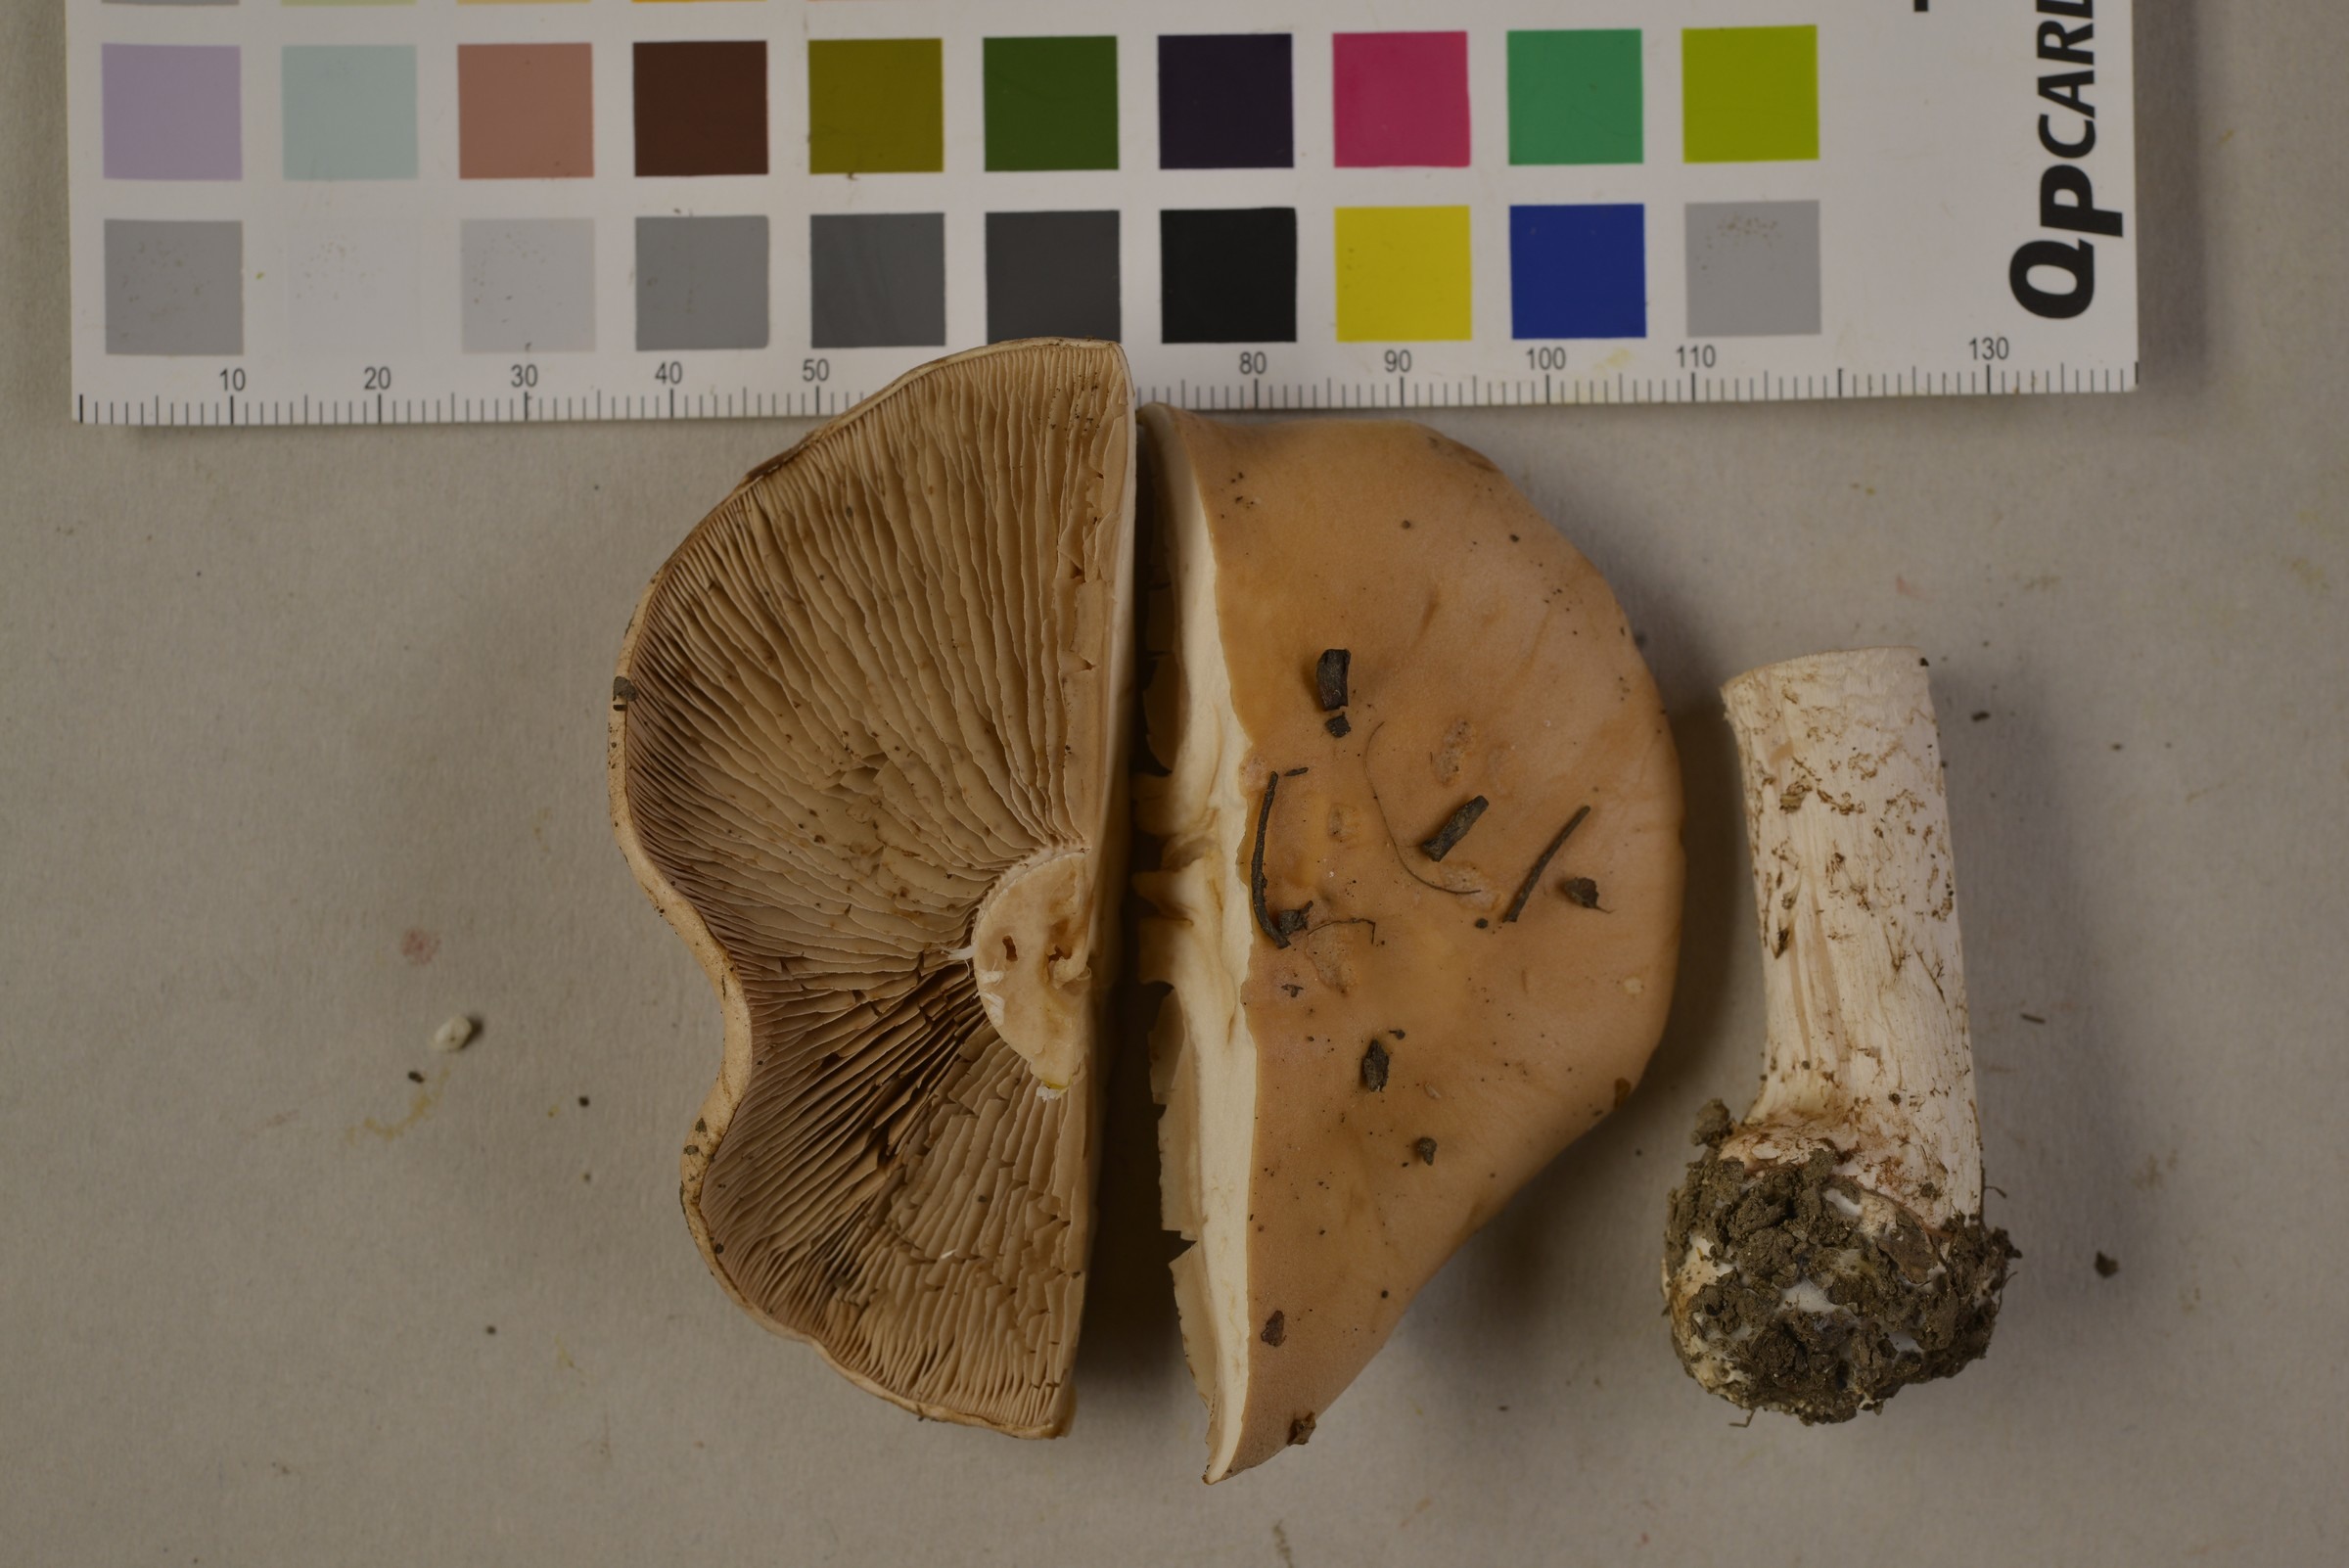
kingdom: Fungi
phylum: Basidiomycota
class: Agaricomycetes
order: Agaricales
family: Hymenogastraceae
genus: Hebeloma
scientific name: Hebeloma sinapizans
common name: Bitter poisonpie
